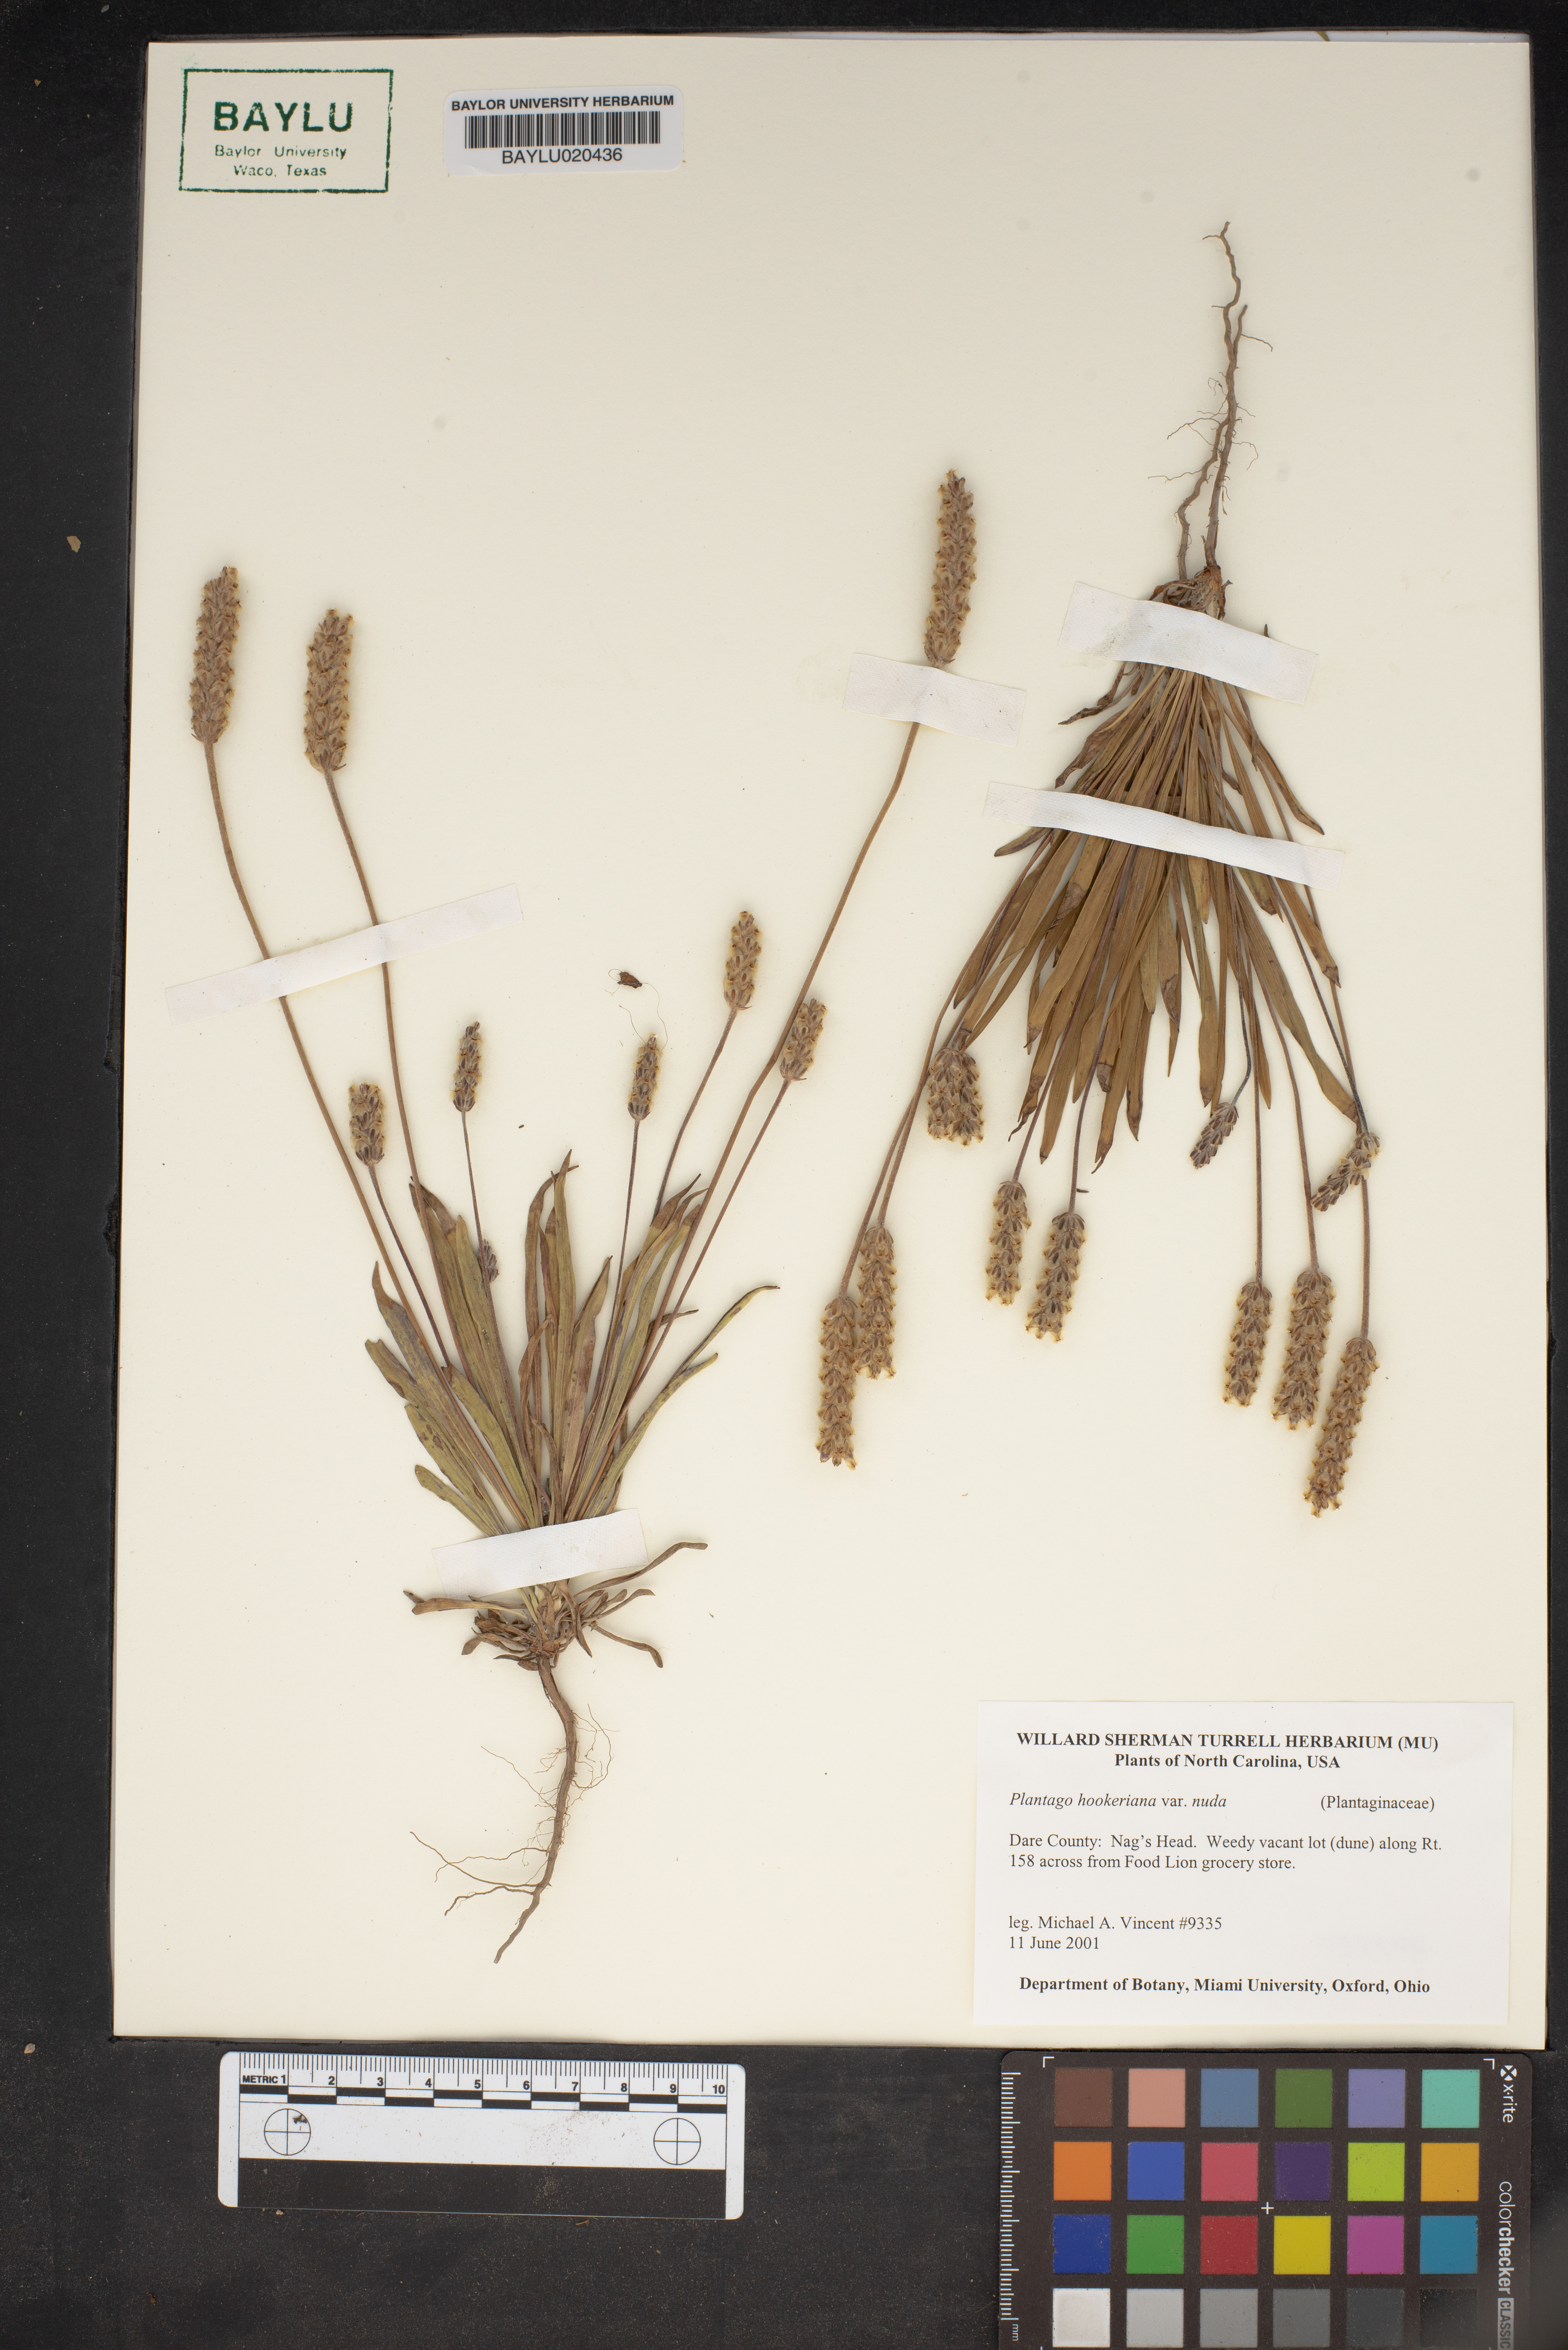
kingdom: Plantae
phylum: Tracheophyta
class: Magnoliopsida
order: Lamiales
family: Plantaginaceae
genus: Plantago
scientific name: Plantago hookeriana
